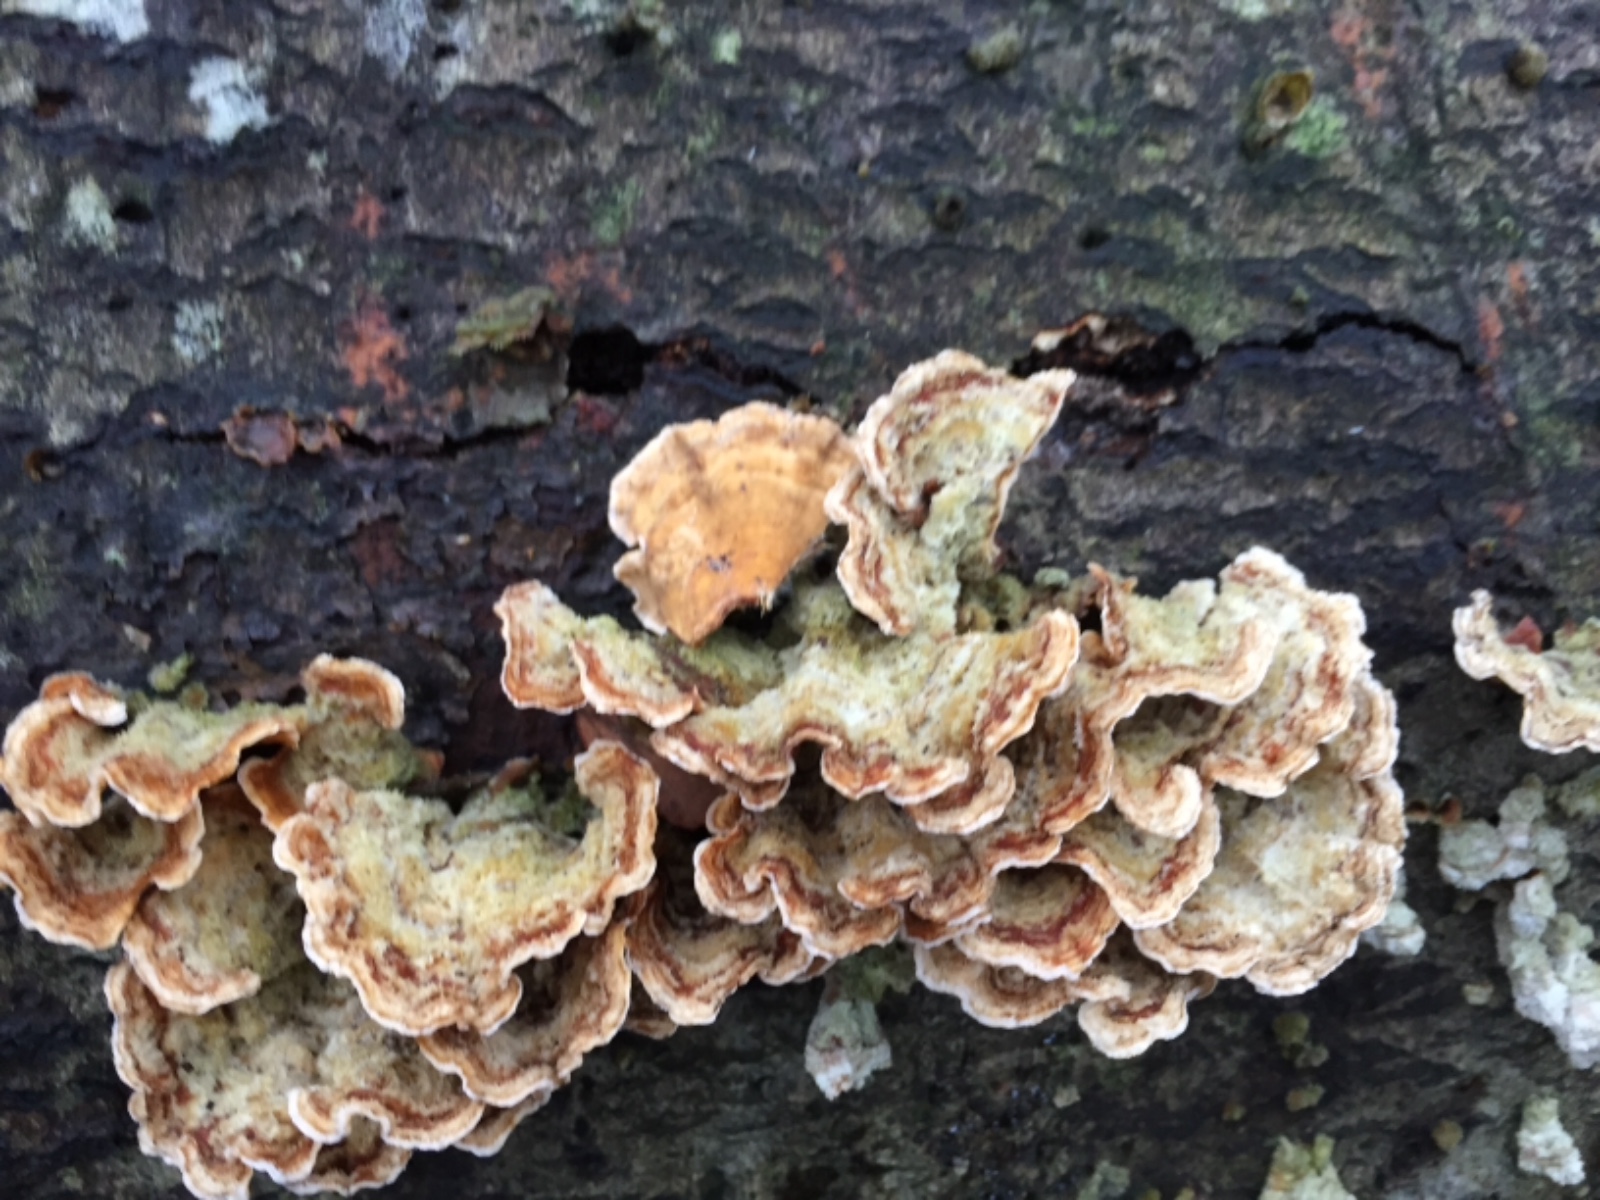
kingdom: Fungi
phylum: Basidiomycota
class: Agaricomycetes
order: Russulales
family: Stereaceae
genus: Stereum
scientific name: Stereum hirsutum
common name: håret lædersvamp
